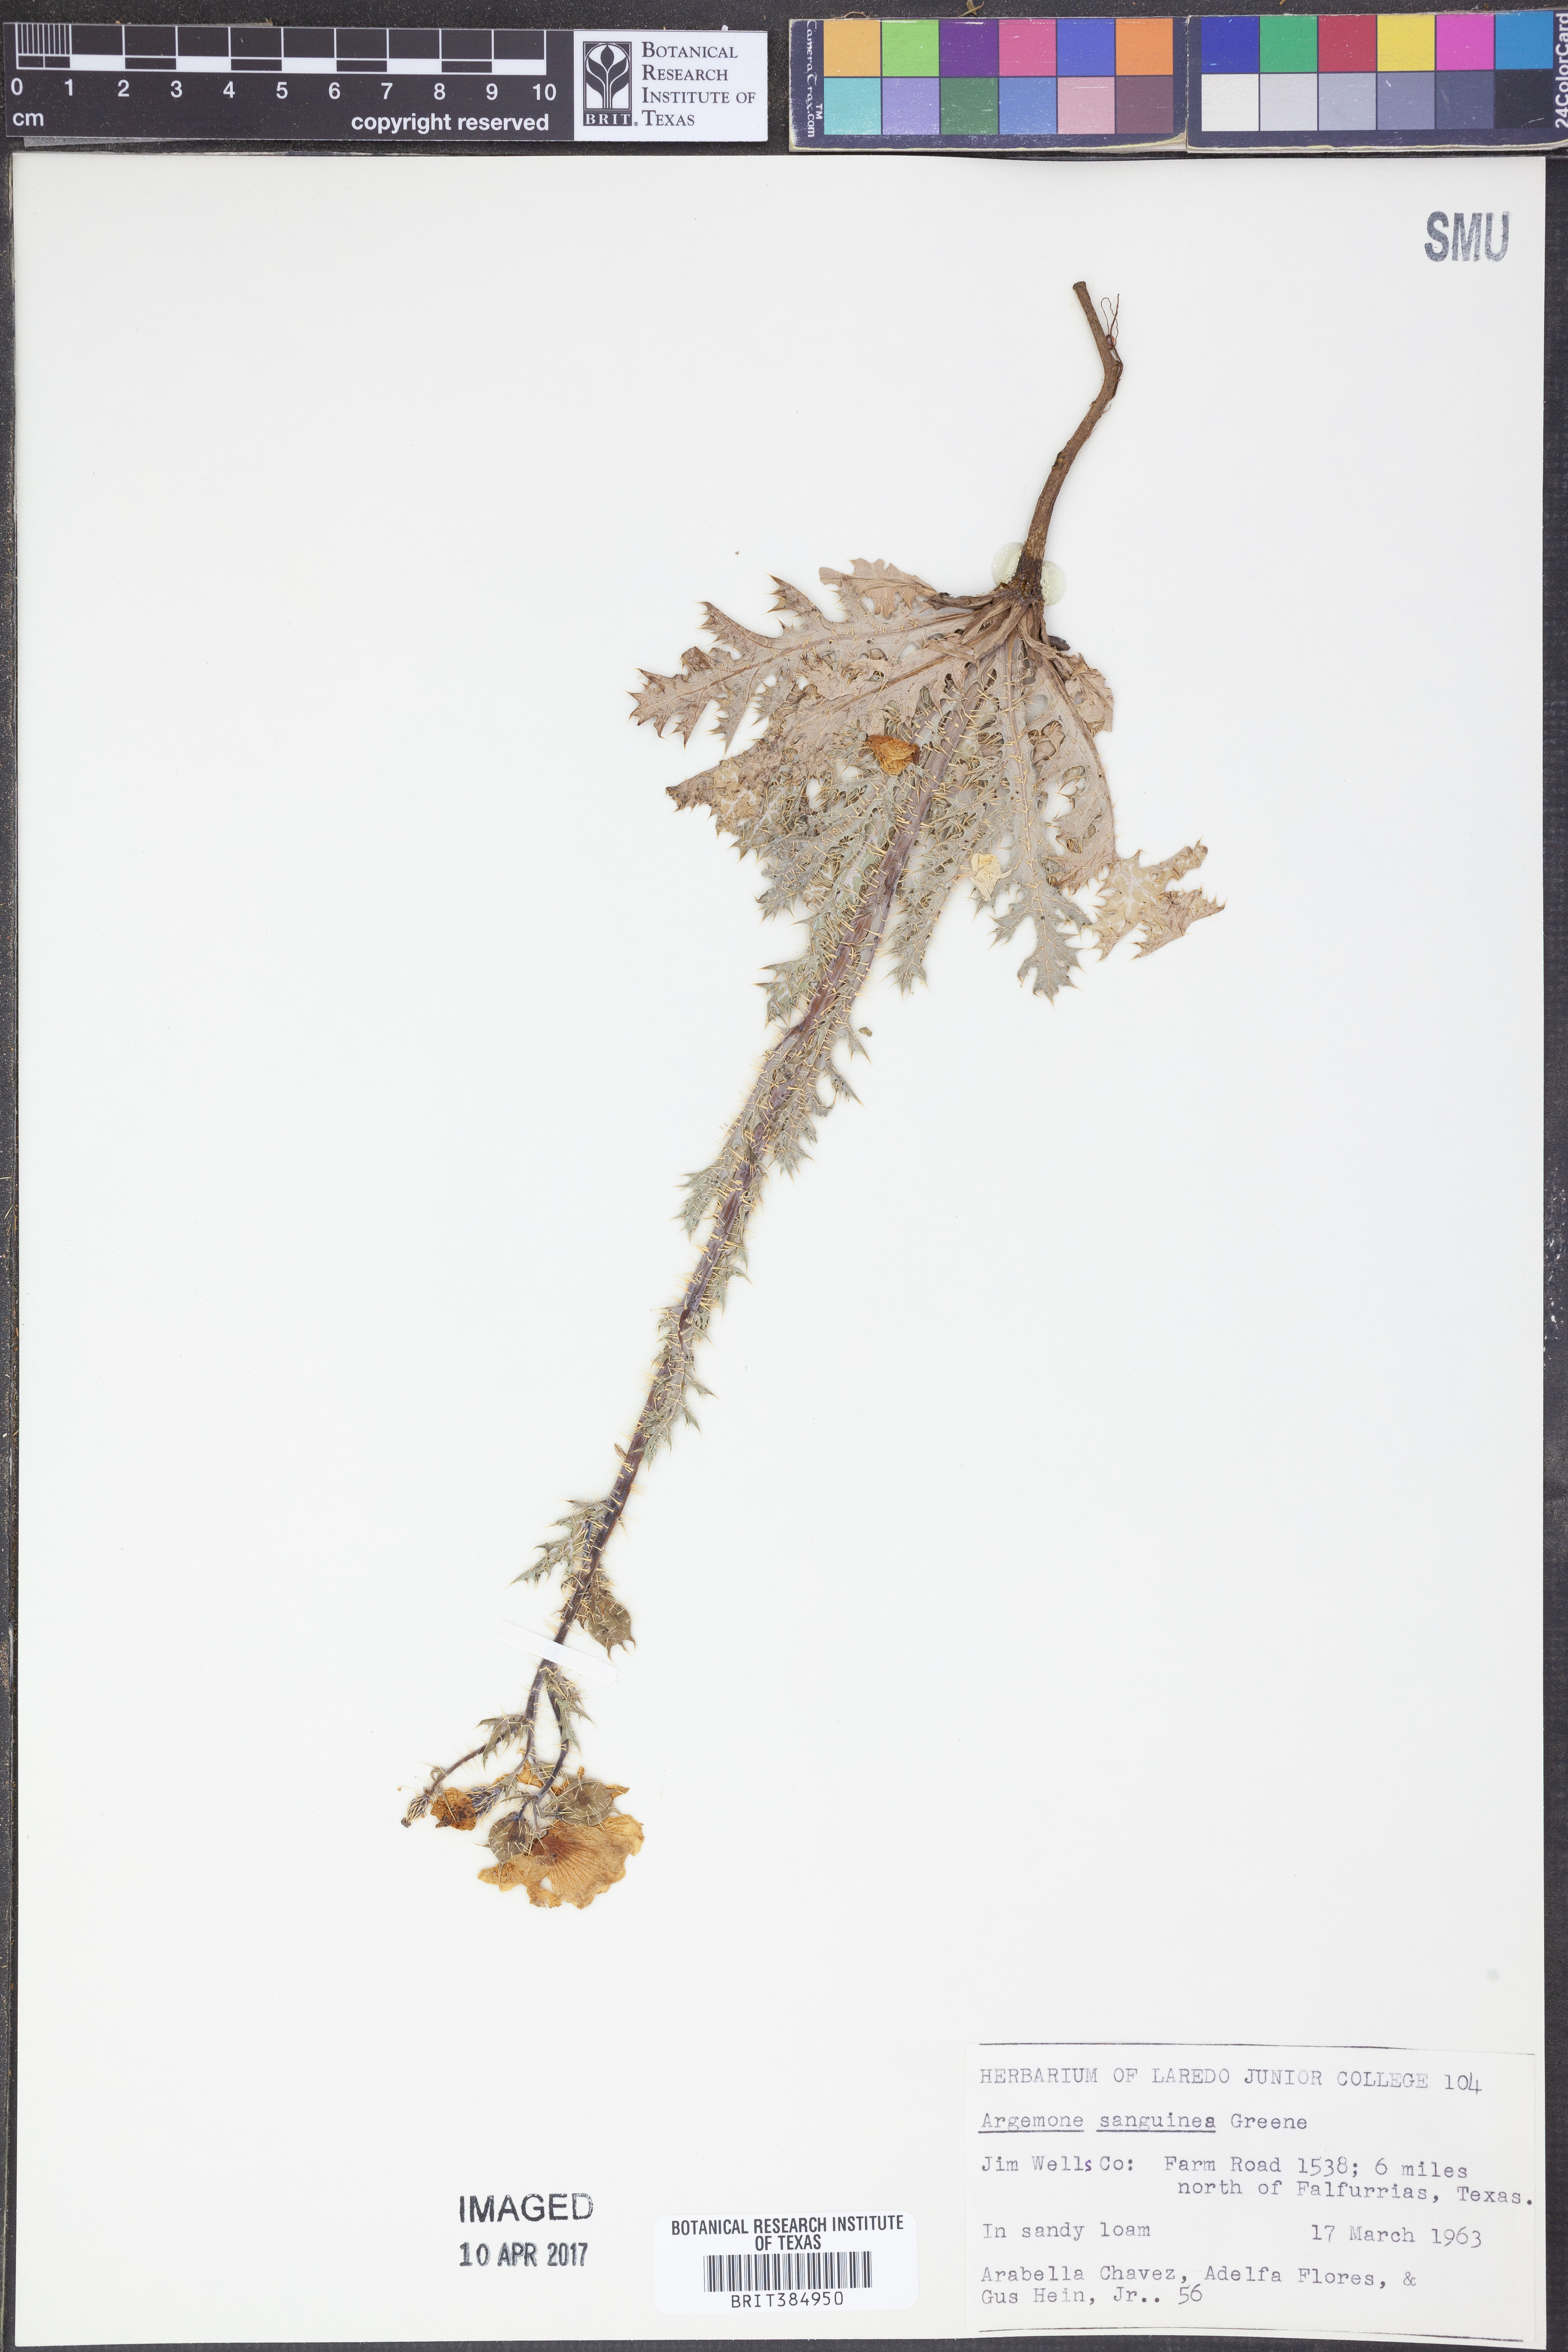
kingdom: Plantae
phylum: Tracheophyta
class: Magnoliopsida
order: Ranunculales
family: Papaveraceae
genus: Argemone
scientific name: Argemone sanguinea
